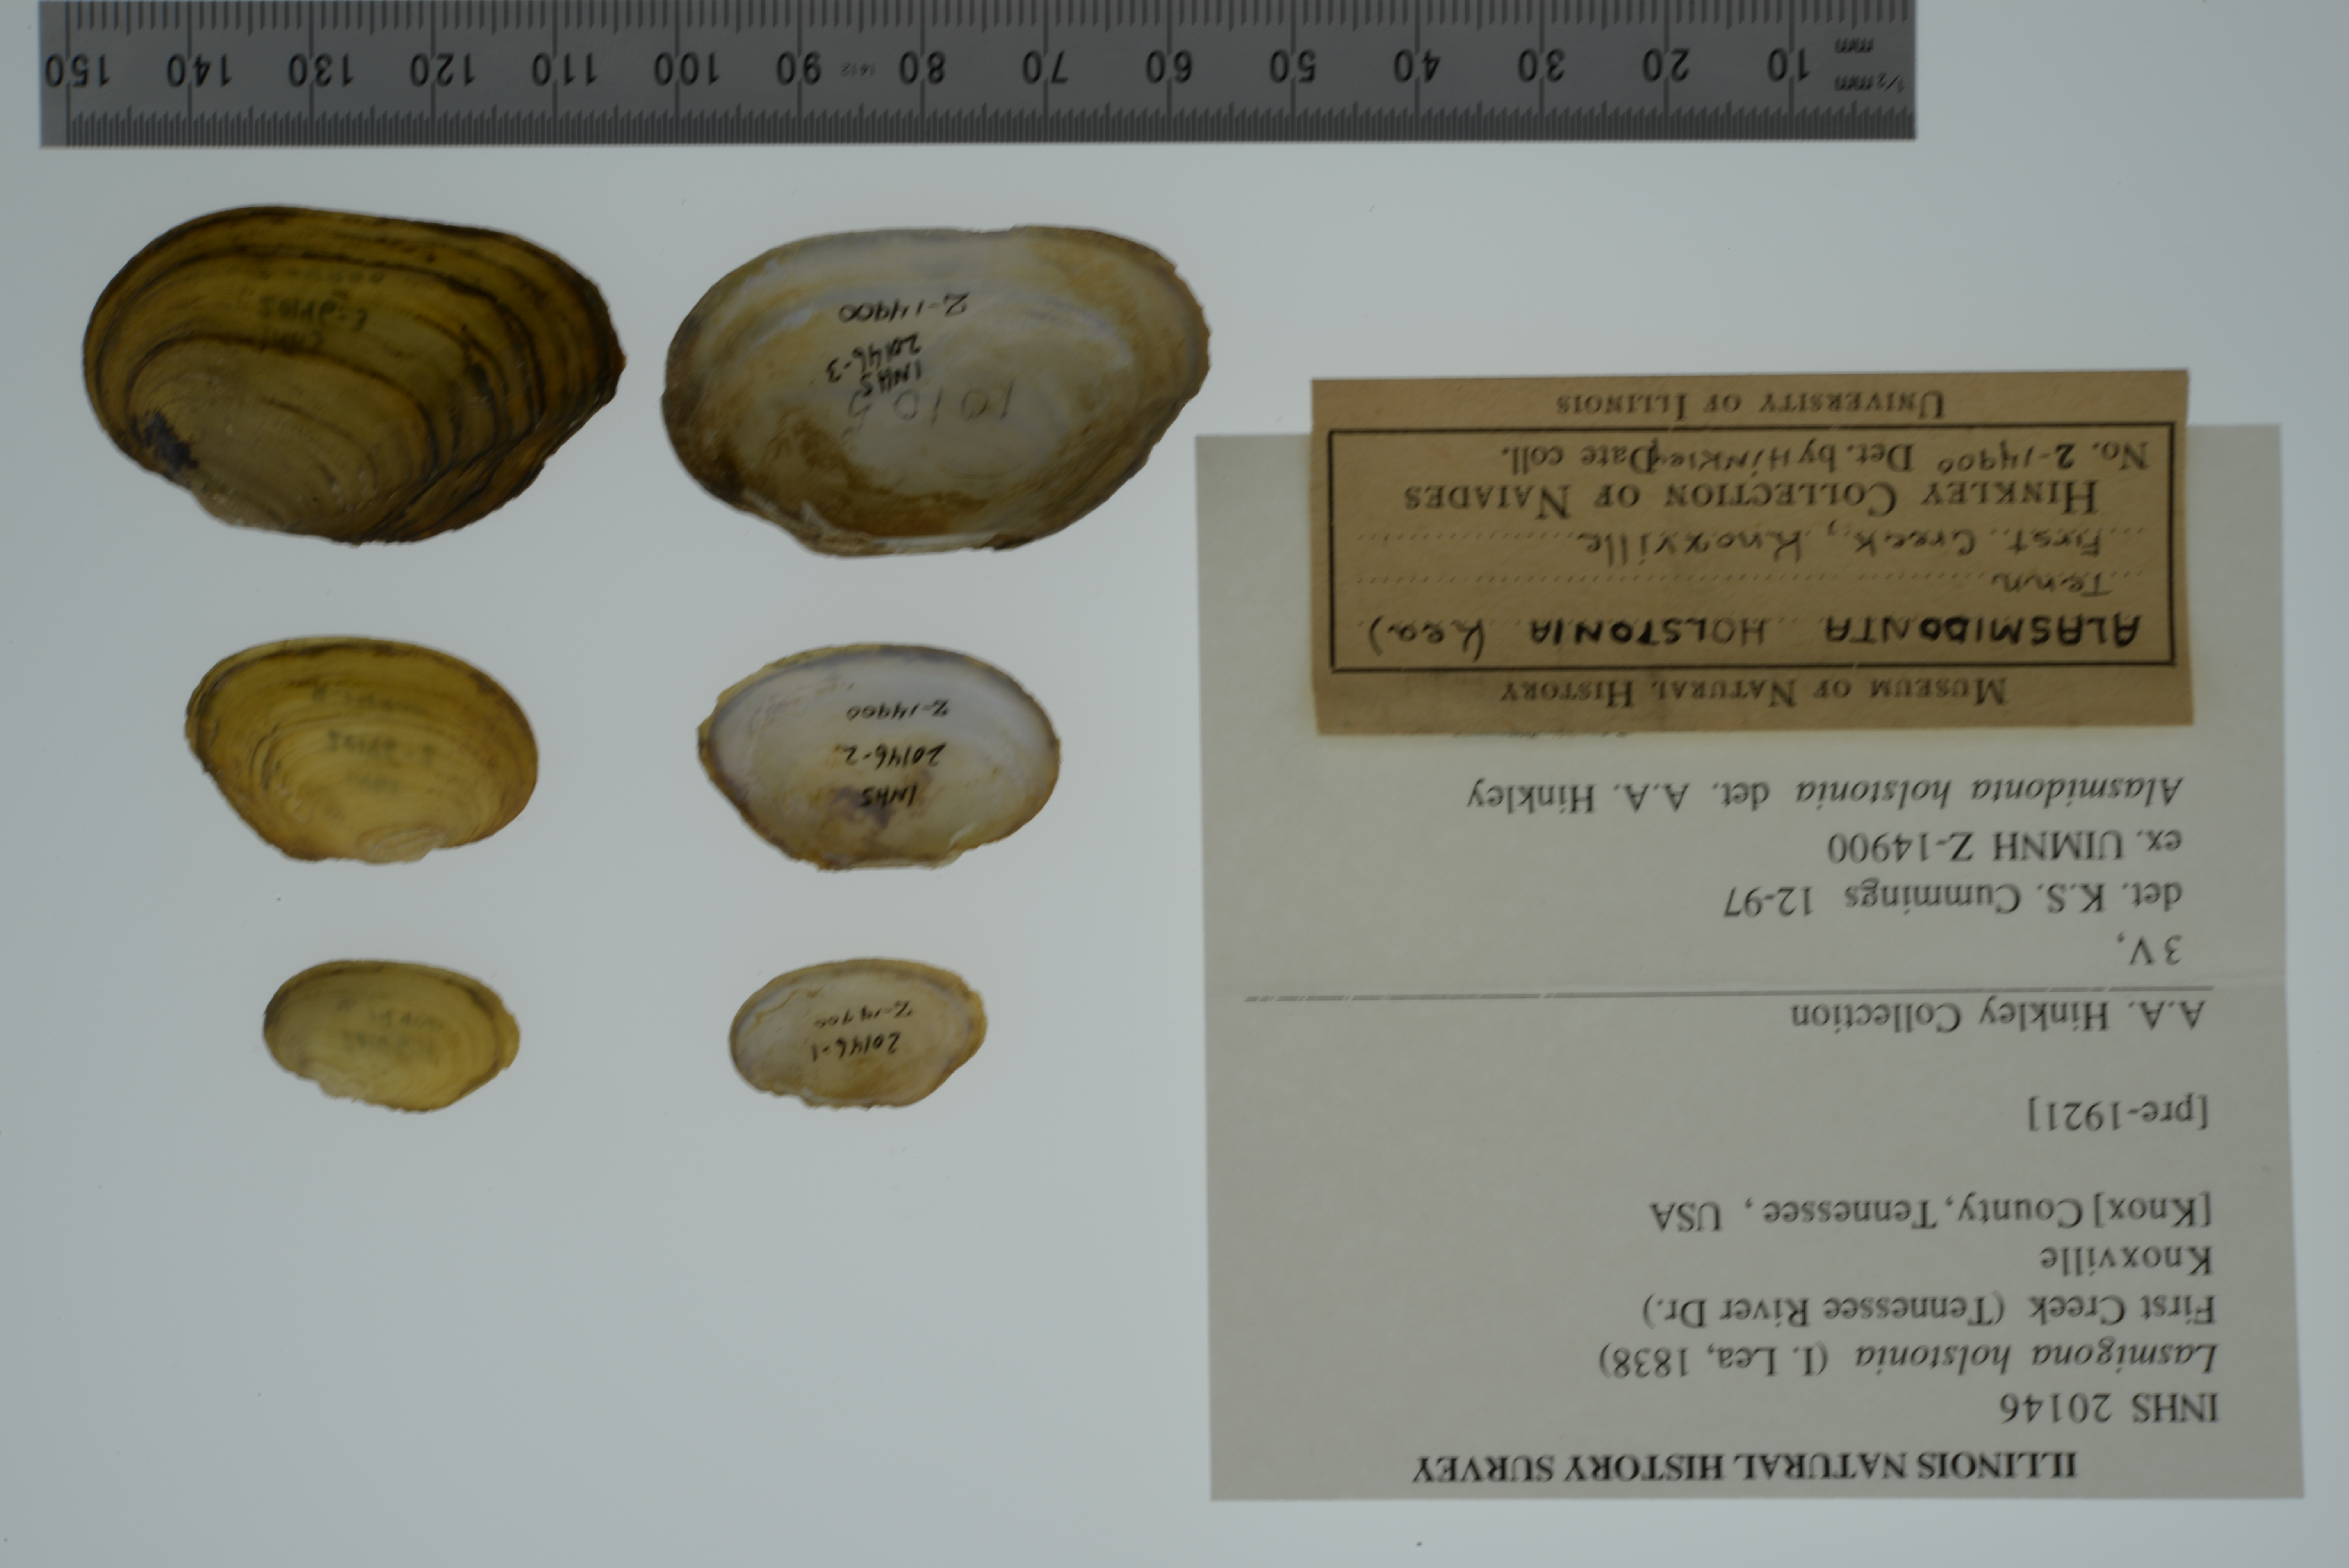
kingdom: Animalia
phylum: Mollusca
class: Bivalvia
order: Unionida
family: Unionidae
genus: Lasmigona
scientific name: Lasmigona holstonia
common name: Tennessee heelsplitter
